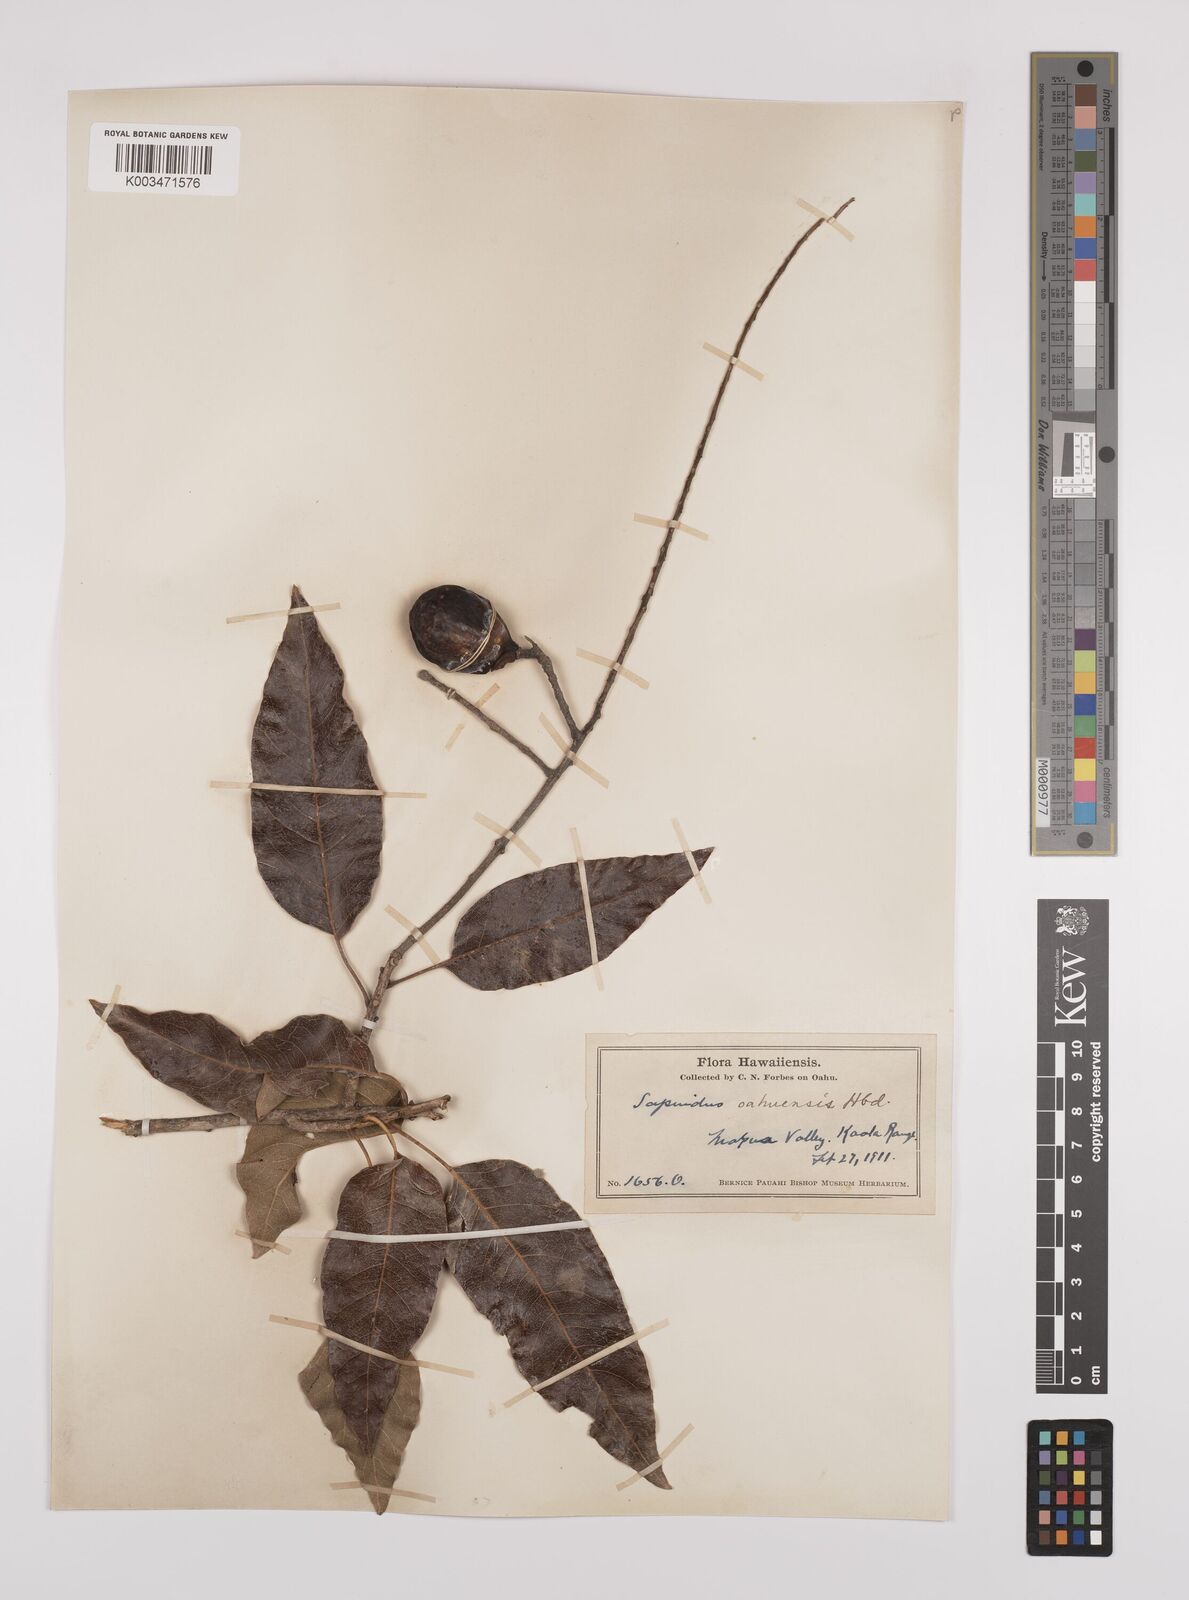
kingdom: Plantae
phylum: Tracheophyta
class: Magnoliopsida
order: Sapindales
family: Sapindaceae
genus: Sapindus
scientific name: Sapindus oahuensis
